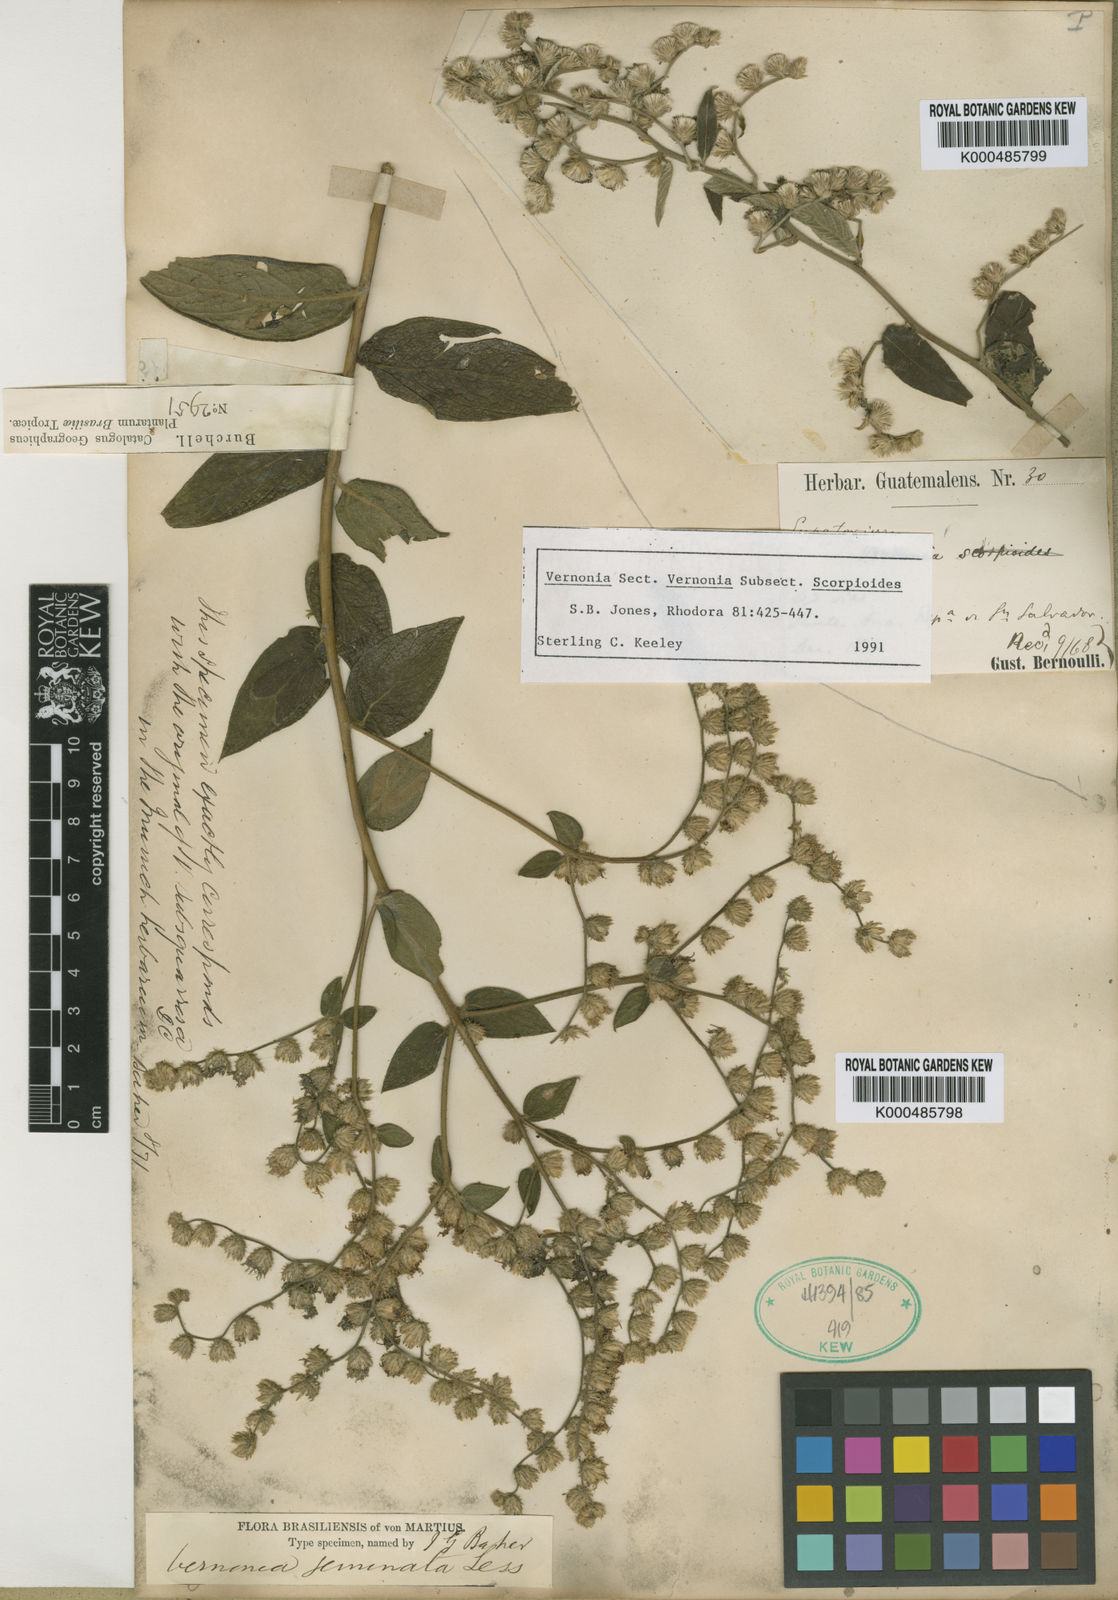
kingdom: Plantae
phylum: Tracheophyta
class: Magnoliopsida
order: Asterales
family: Asteraceae
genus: Vernonia
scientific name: Vernonia
